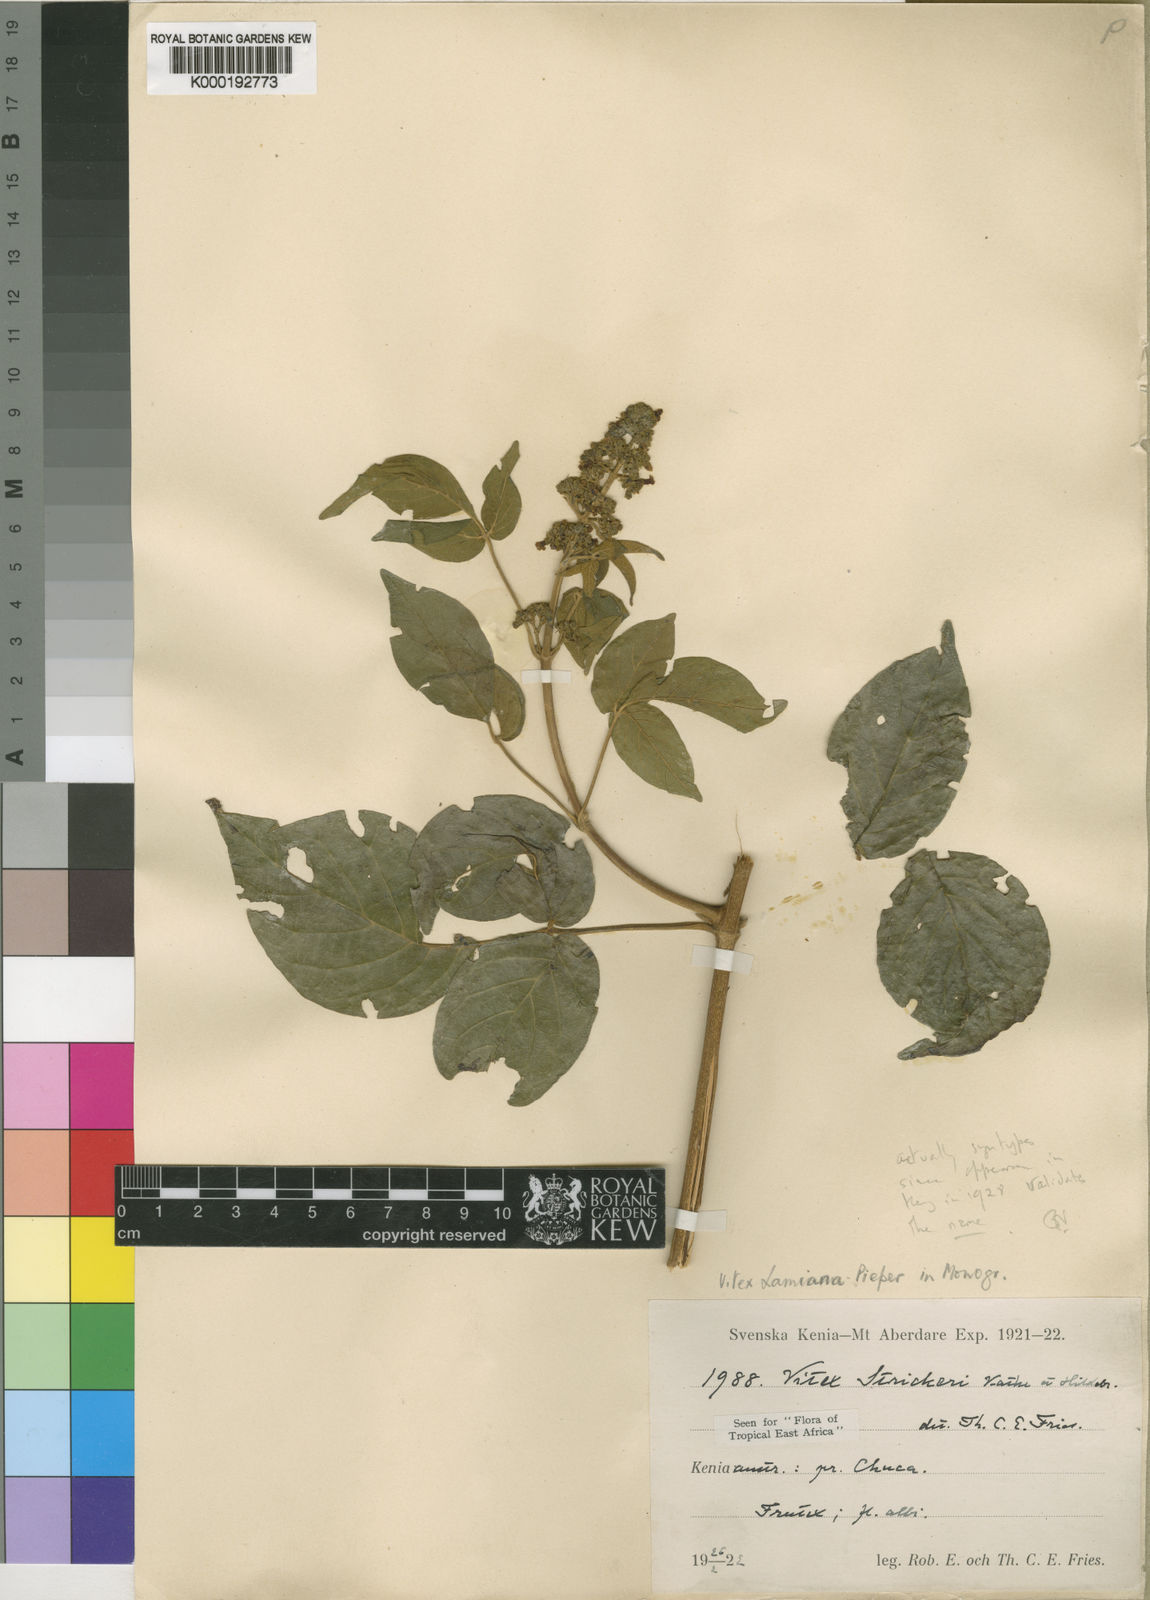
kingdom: Plantae
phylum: Tracheophyta
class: Magnoliopsida
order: Lamiales
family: Lamiaceae
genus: Vitex
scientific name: Vitex strickeri
